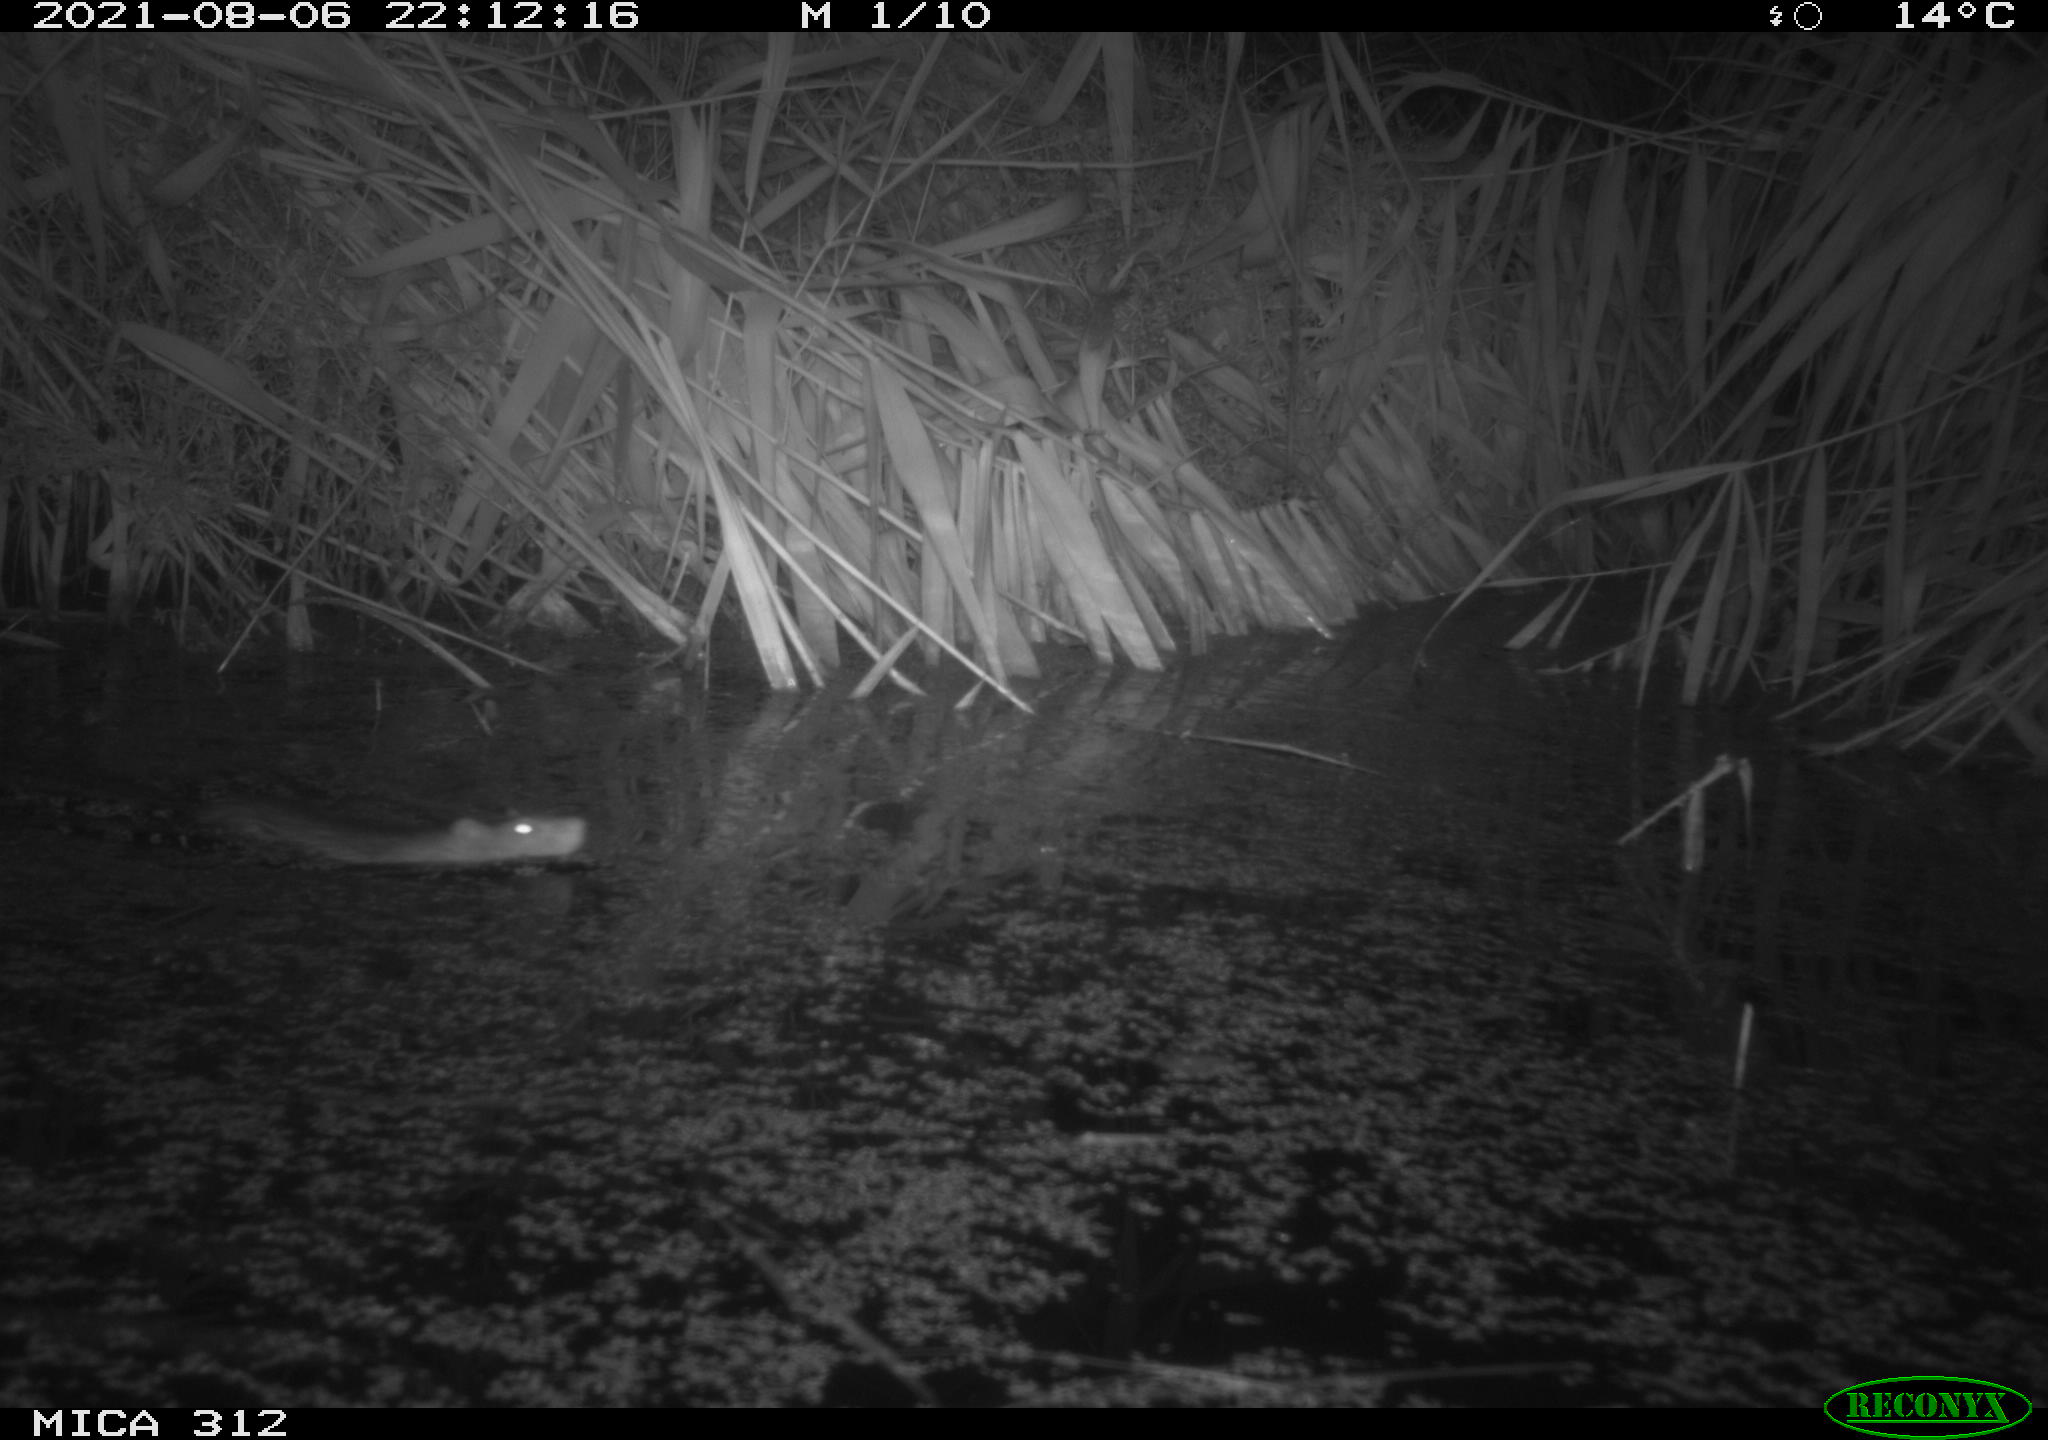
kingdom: Animalia
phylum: Chordata
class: Mammalia
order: Rodentia
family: Muridae
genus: Rattus
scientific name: Rattus norvegicus
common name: Brown rat
